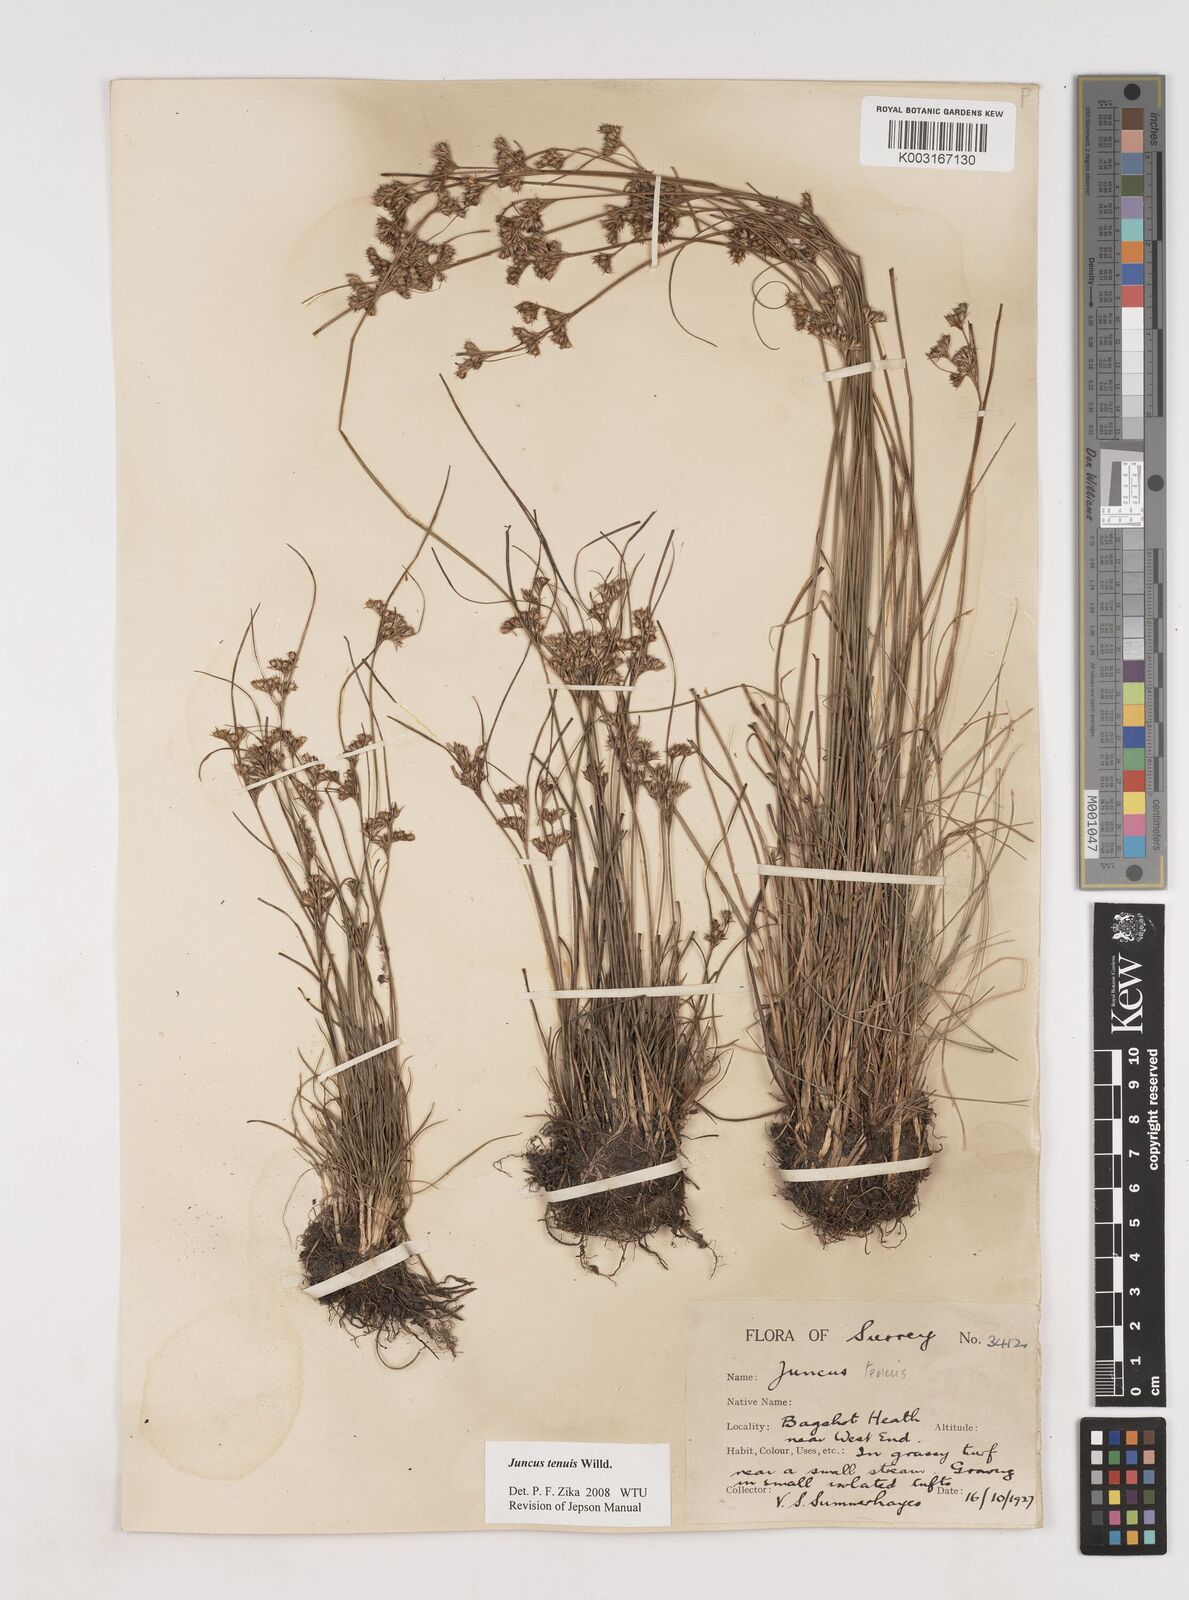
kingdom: Plantae
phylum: Tracheophyta
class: Liliopsida
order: Poales
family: Juncaceae
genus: Juncus
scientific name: Juncus tenuis
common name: Slender rush
